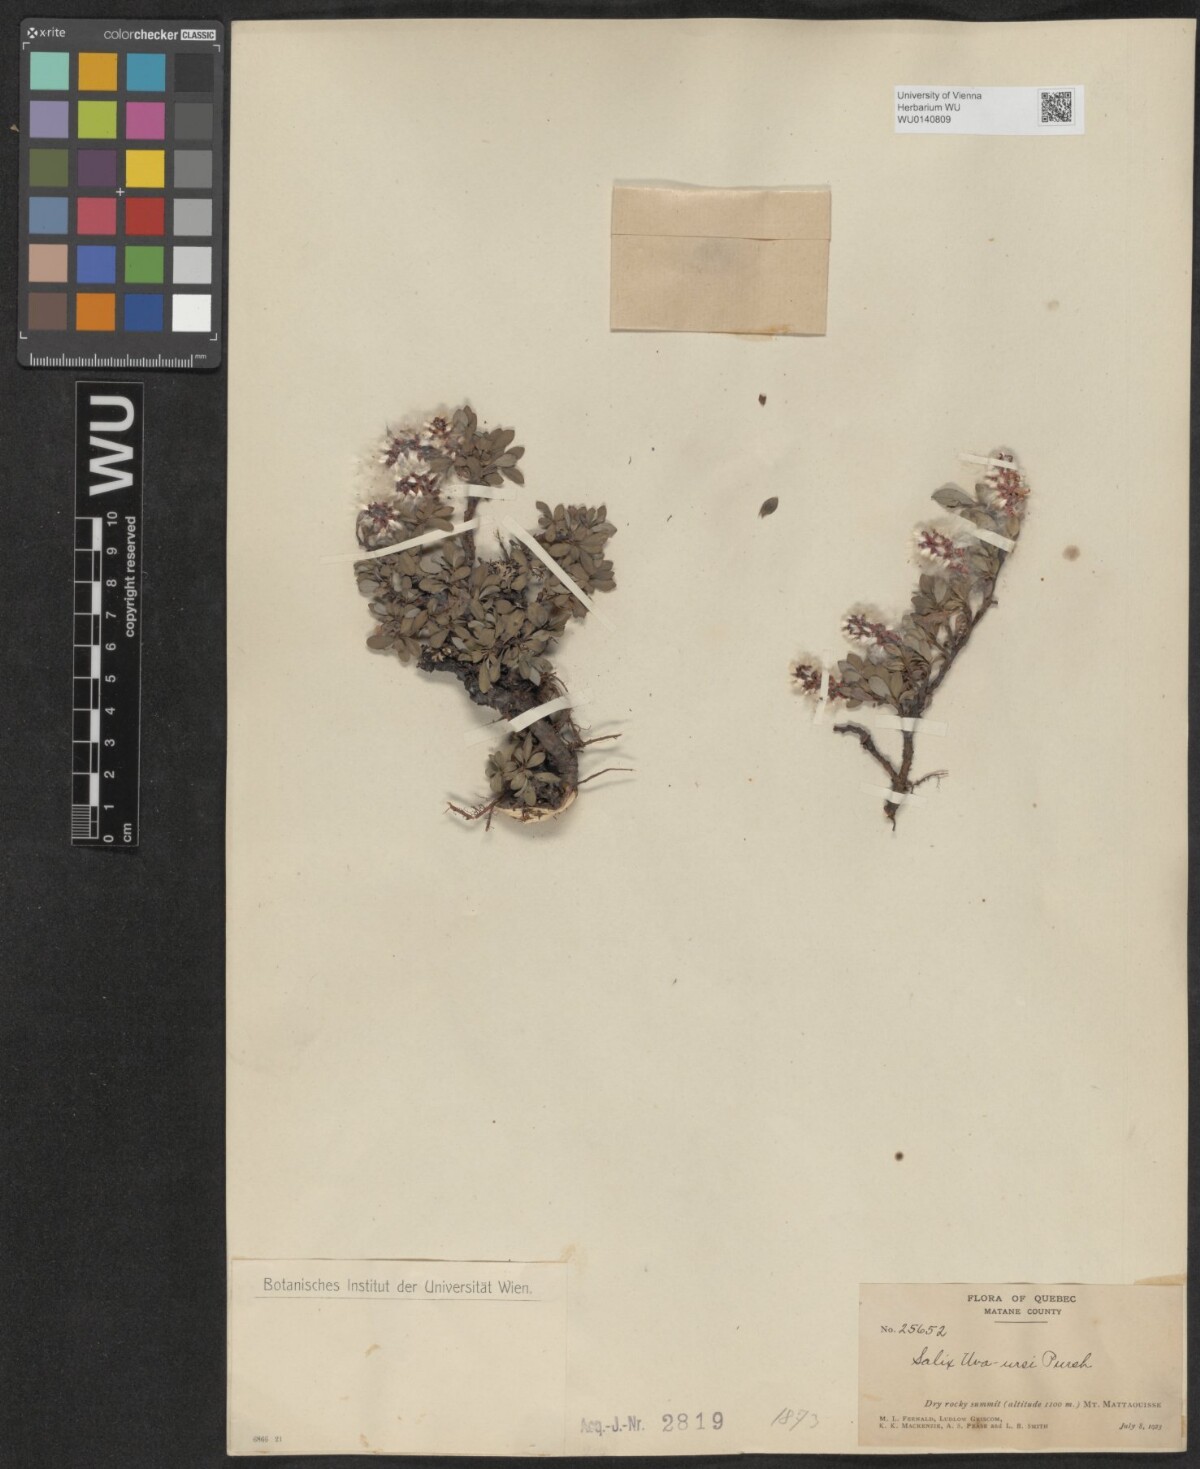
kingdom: Plantae
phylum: Tracheophyta
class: Magnoliopsida
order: Malpighiales
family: Salicaceae
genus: Salix
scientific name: Salix uva-ursi
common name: Bearberry willow
